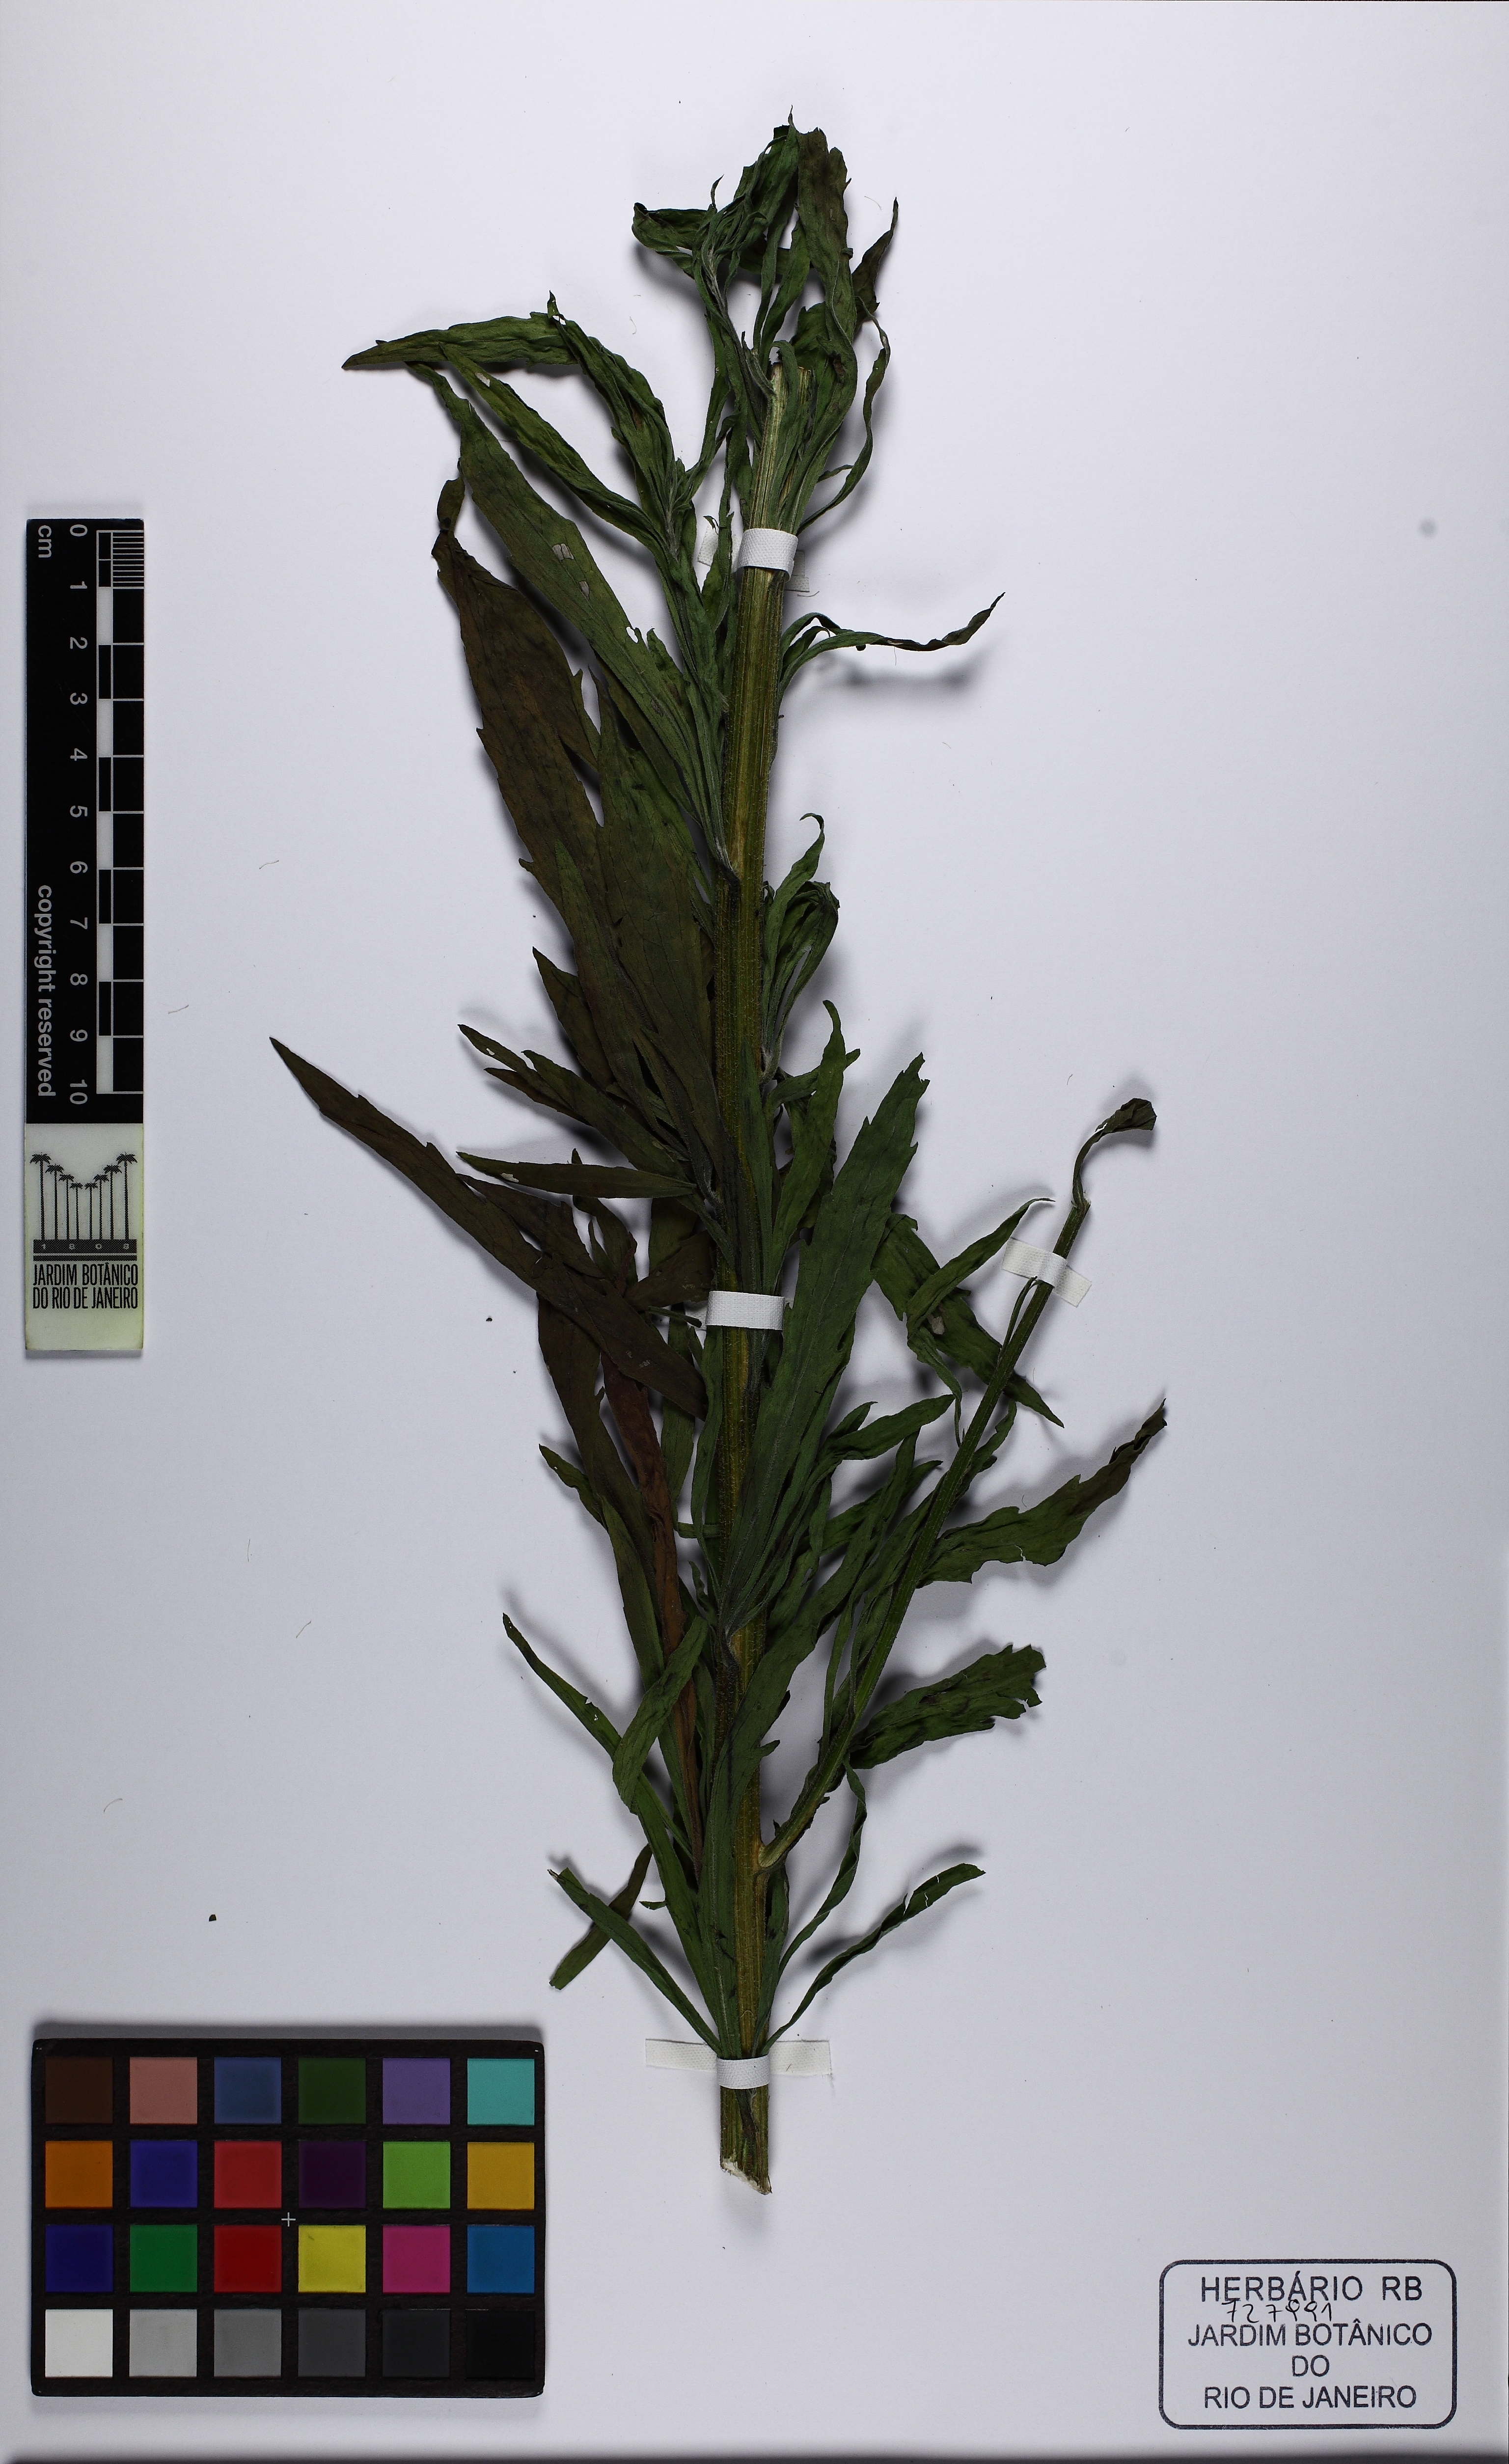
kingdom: Plantae
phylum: Tracheophyta
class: Magnoliopsida
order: Asterales
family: Asteraceae
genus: Conyza
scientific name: Conyza
